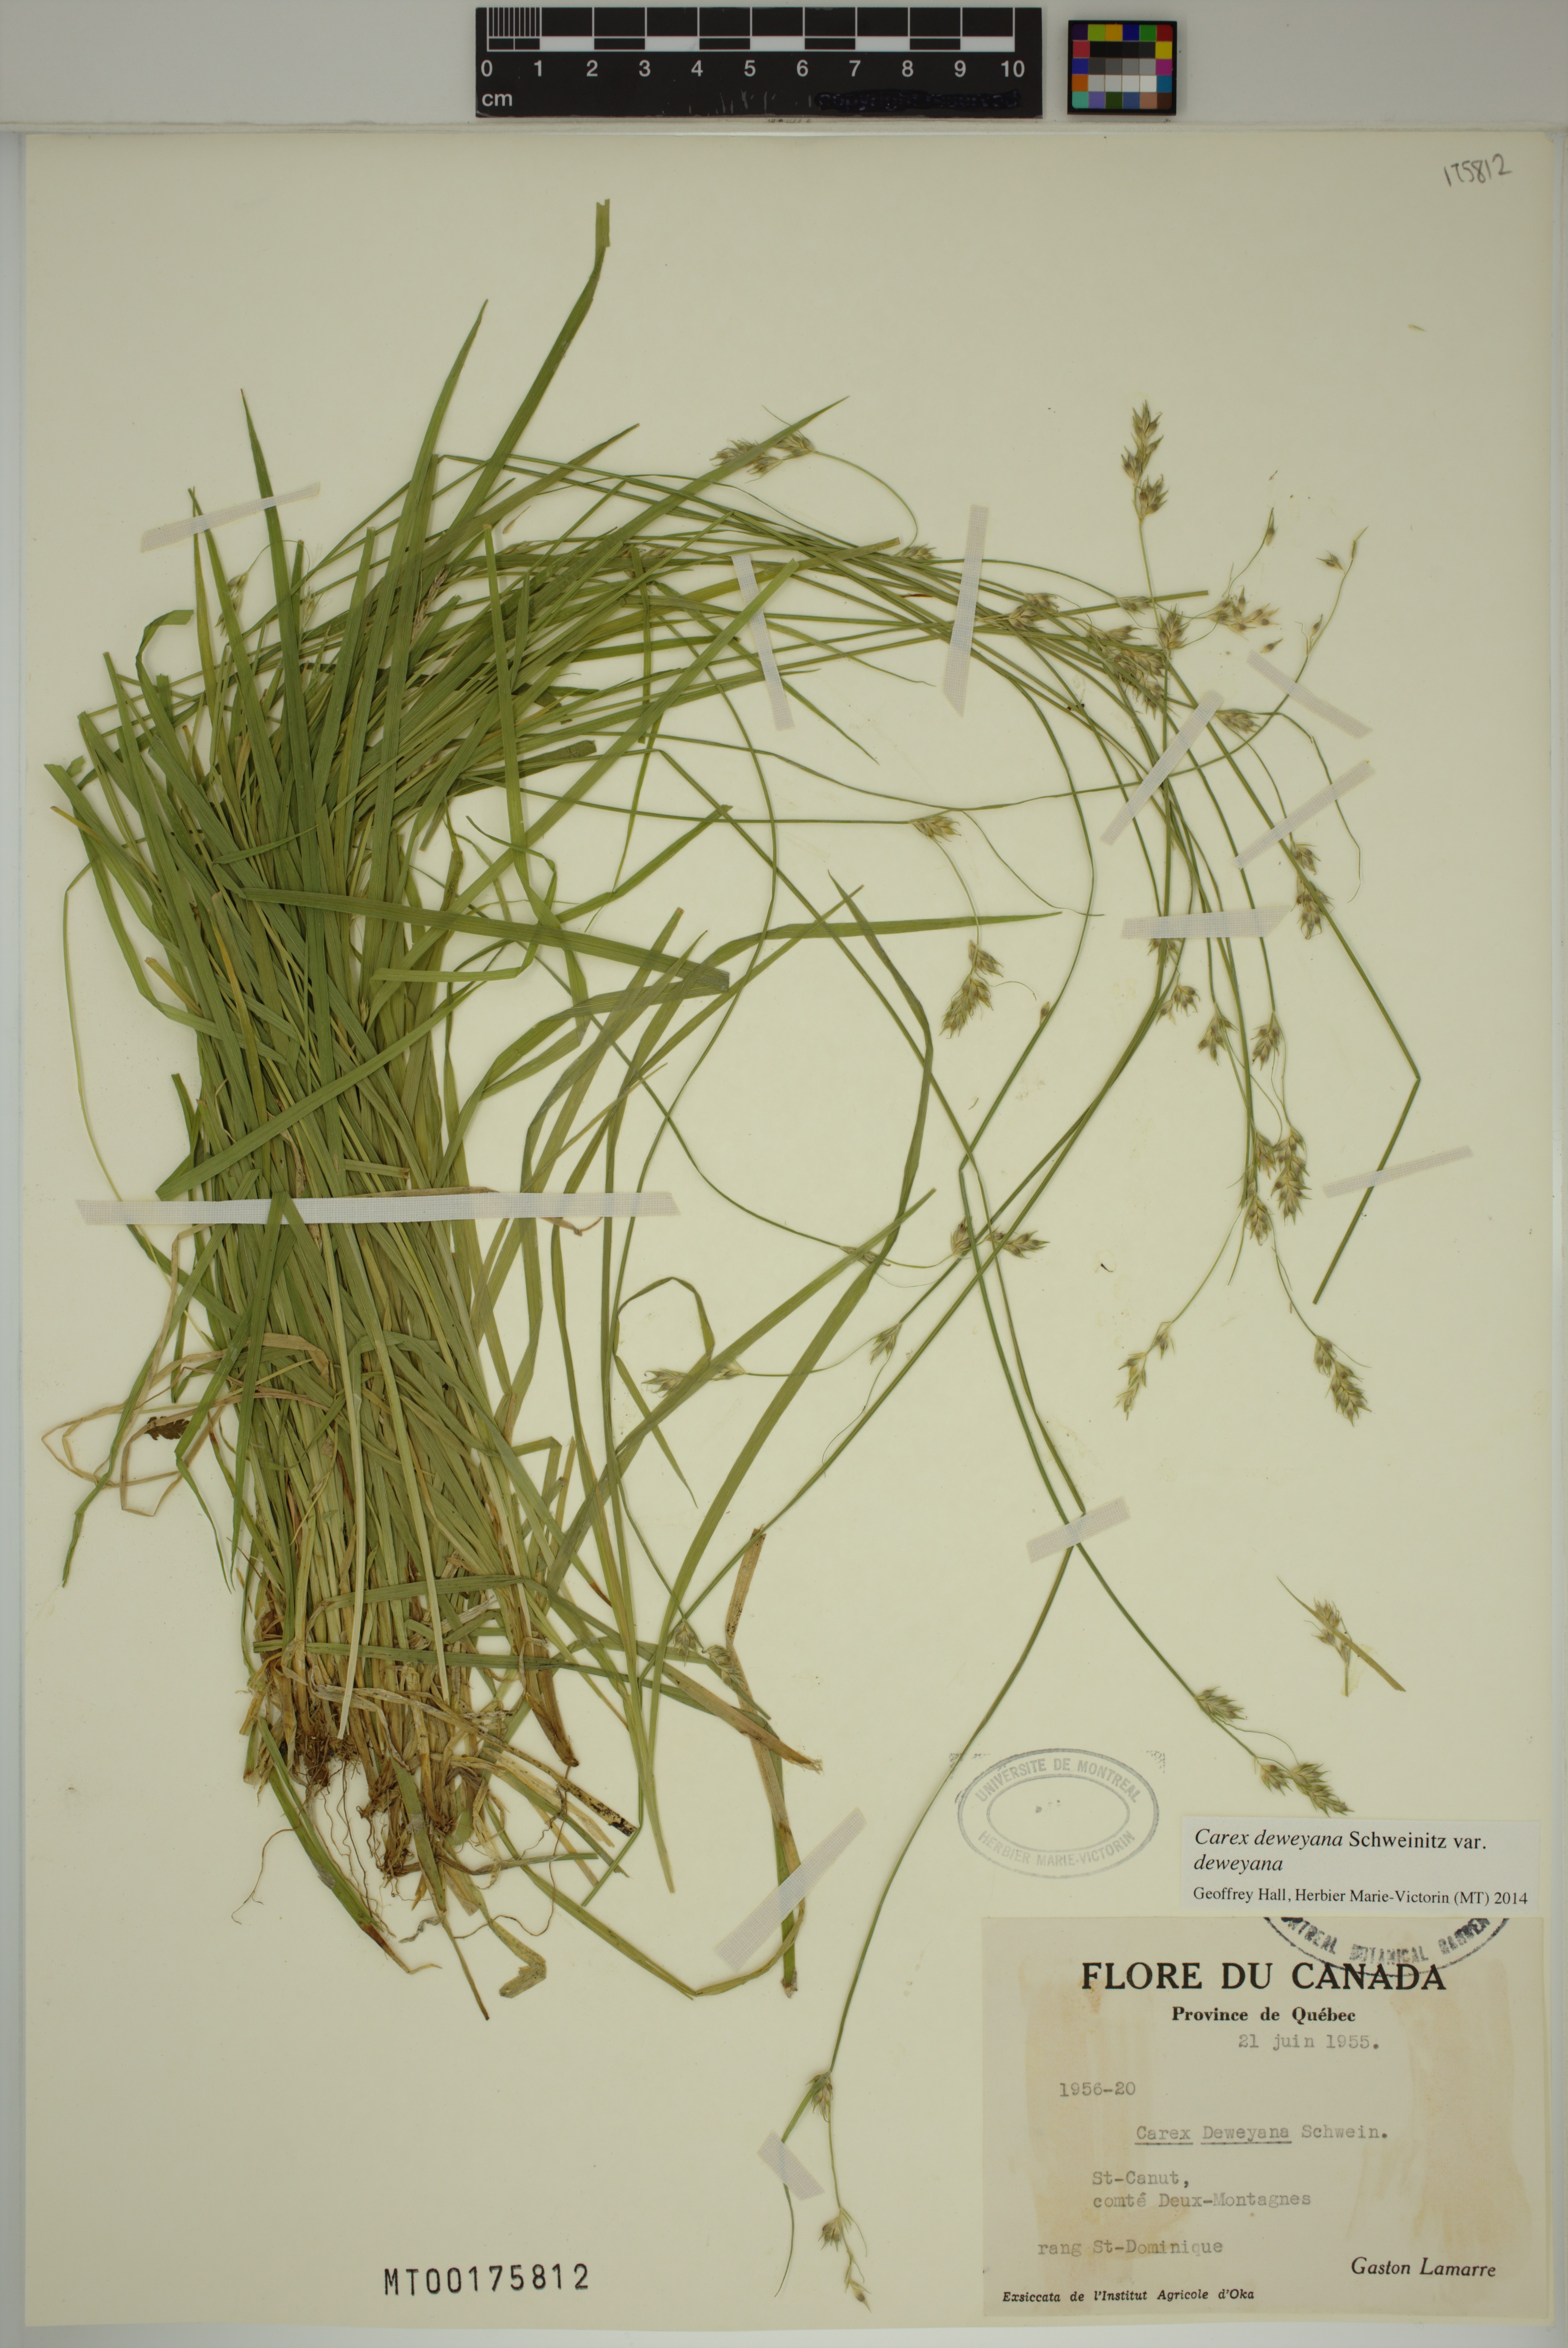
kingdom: Plantae
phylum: Tracheophyta
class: Liliopsida
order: Poales
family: Cyperaceae
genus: Carex
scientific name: Carex deweyana
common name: Dewey's sedge
